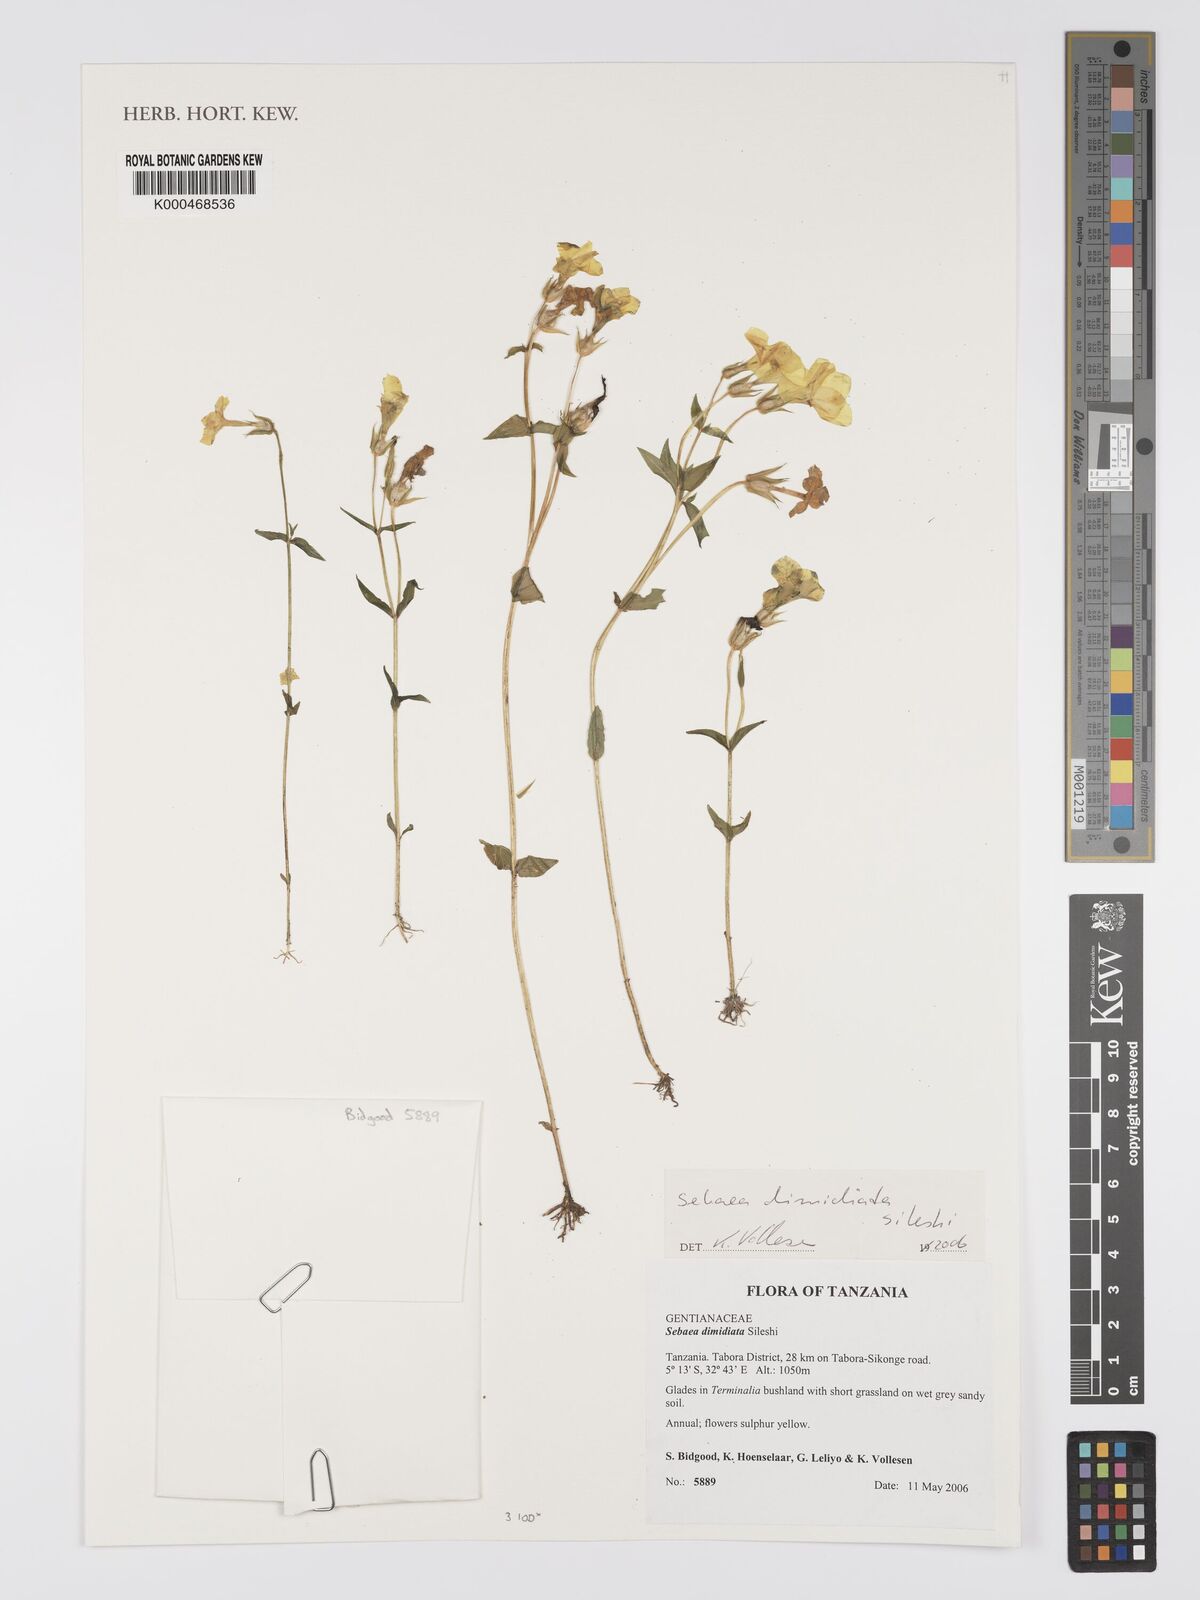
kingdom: Plantae
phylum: Tracheophyta
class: Magnoliopsida
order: Gentianales
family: Gentianaceae
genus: Exochaenium
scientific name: Exochaenium dimidiatum
